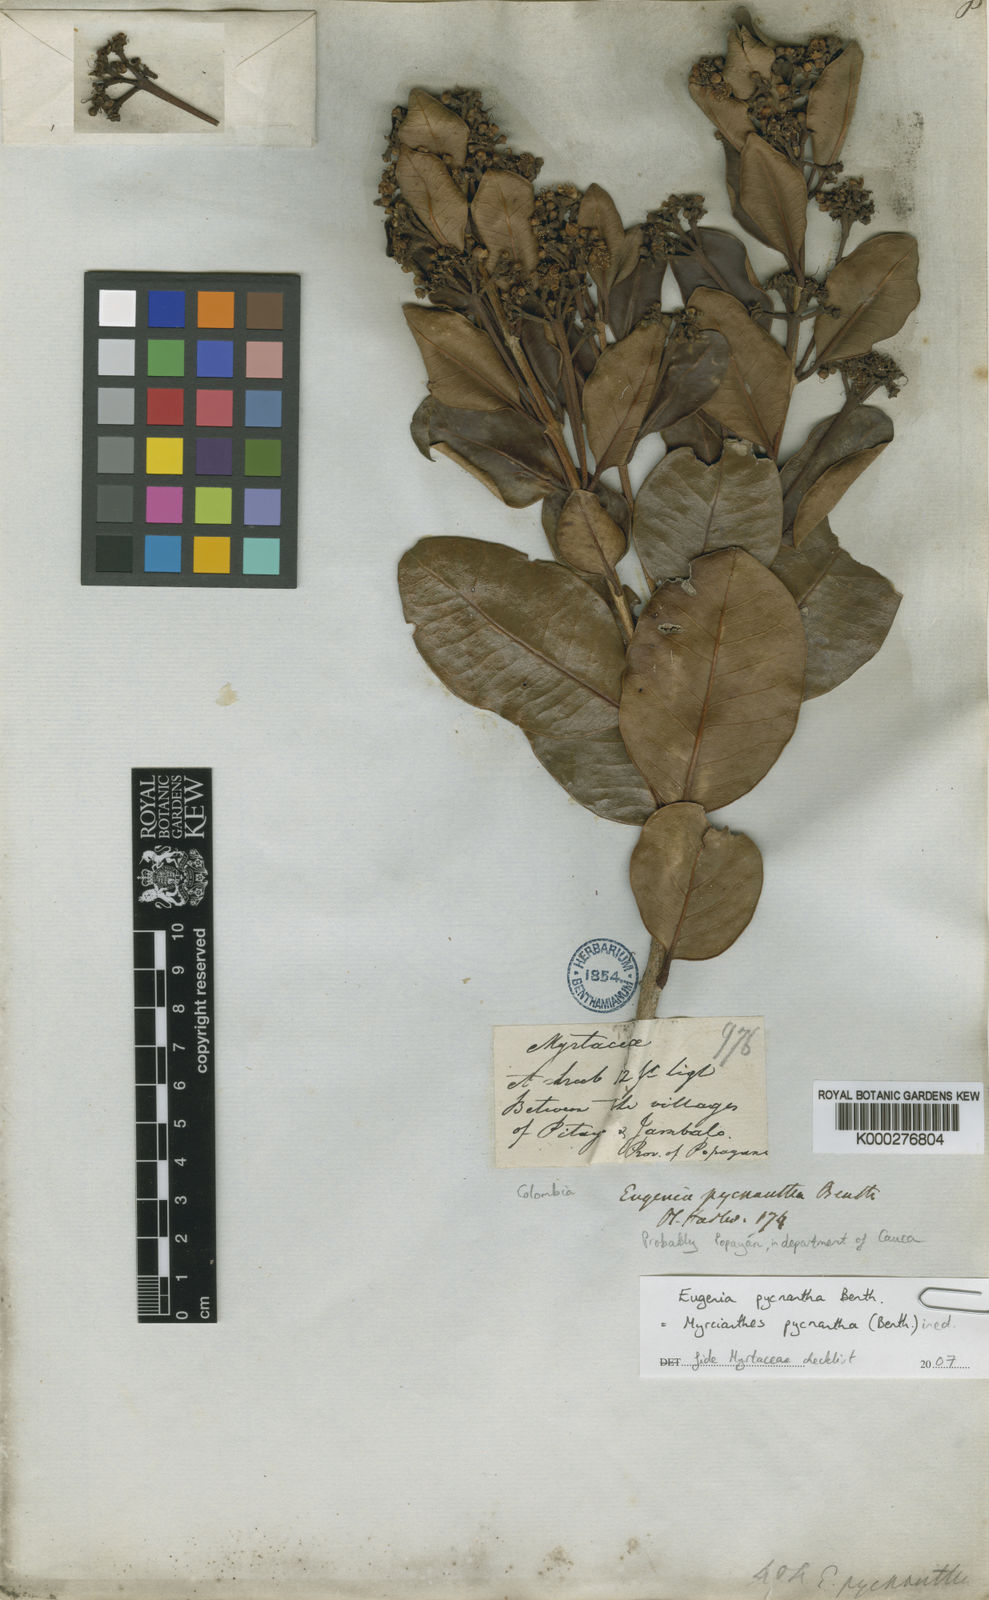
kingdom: Plantae
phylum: Tracheophyta
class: Magnoliopsida
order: Myrtales
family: Myrtaceae
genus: Myrcianthes
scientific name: Myrcianthes
